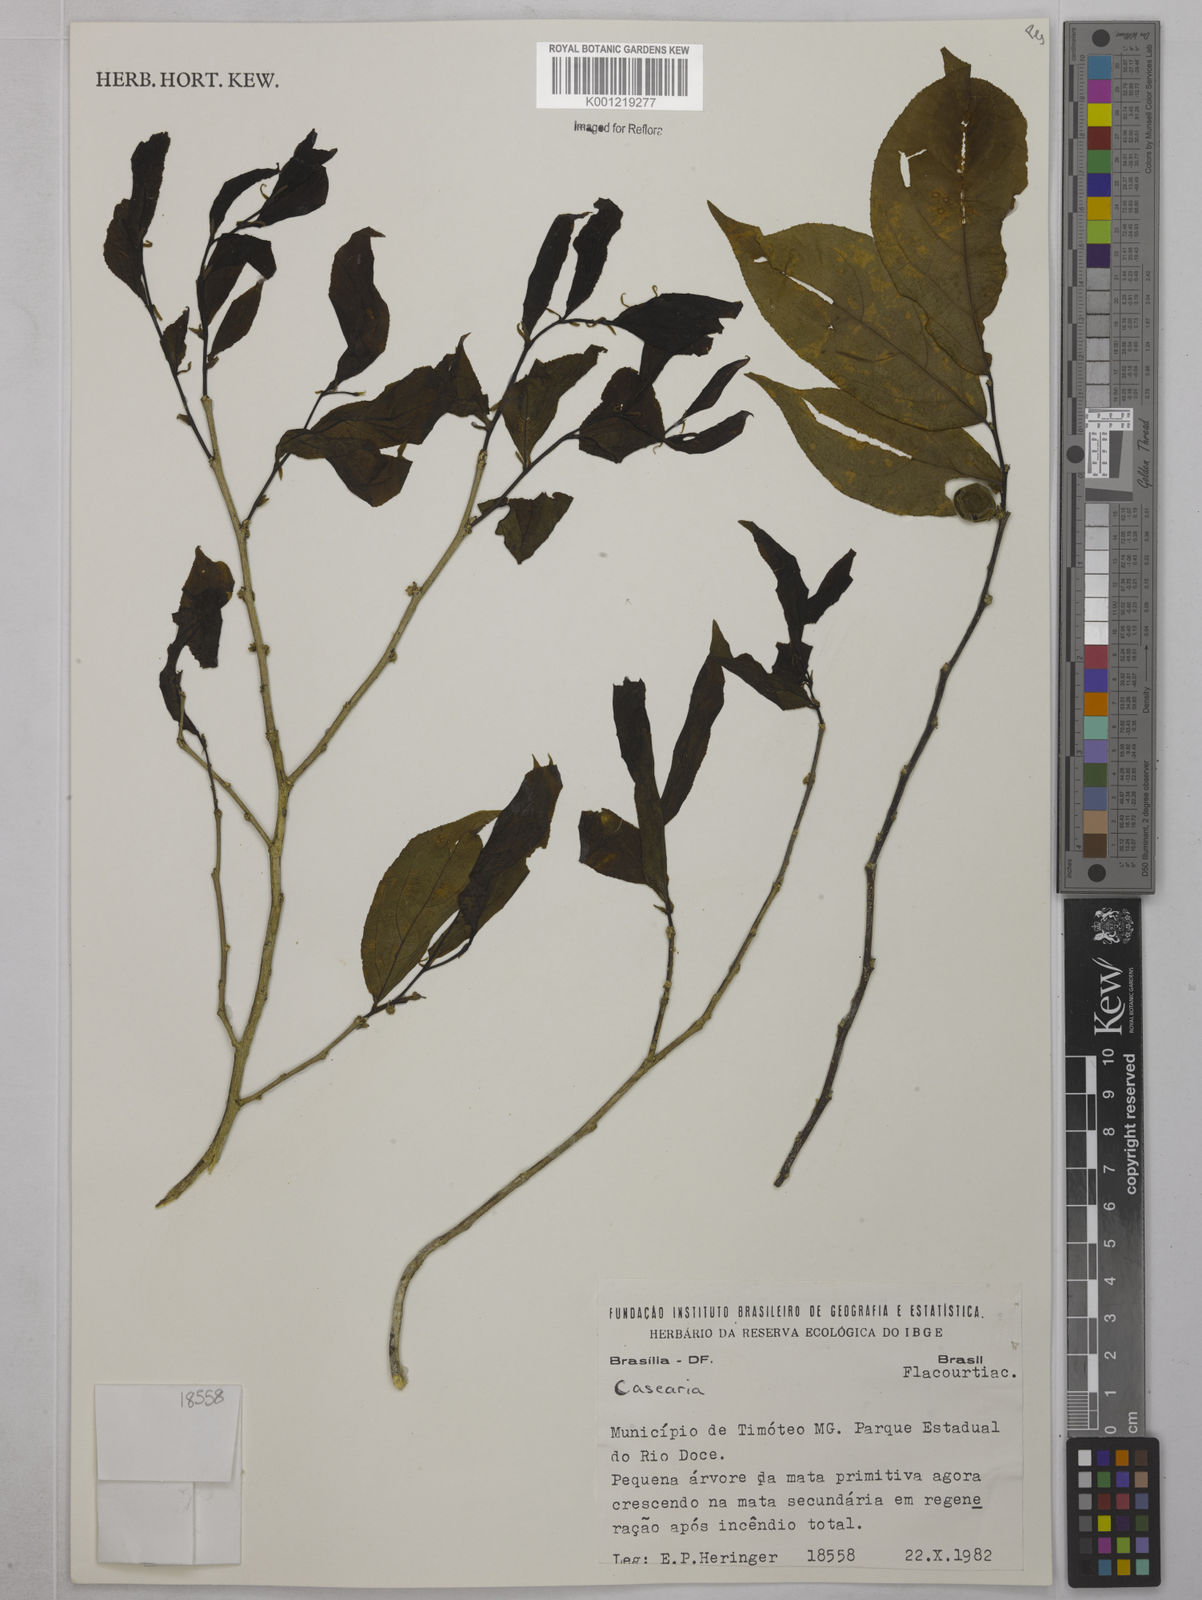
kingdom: Plantae
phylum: Tracheophyta
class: Magnoliopsida
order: Malpighiales
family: Salicaceae
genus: Casearia
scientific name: Casearia
